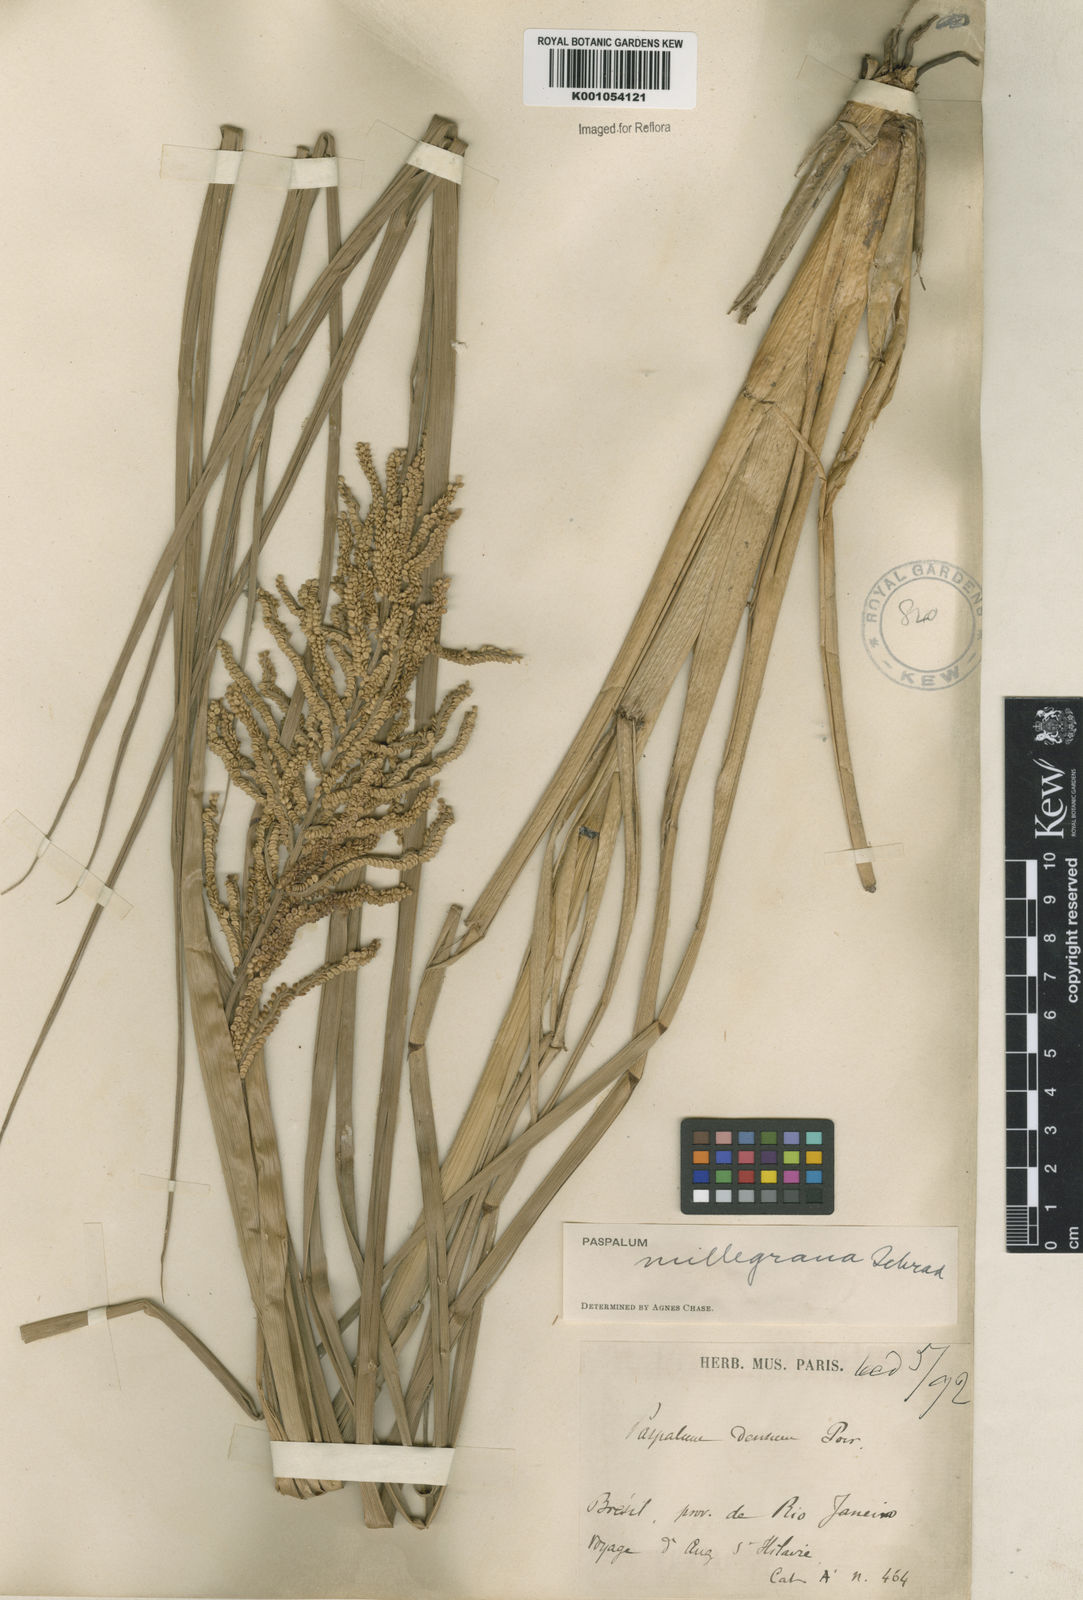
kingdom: Plantae
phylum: Tracheophyta
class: Liliopsida
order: Poales
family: Poaceae
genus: Paspalum
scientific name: Paspalum
